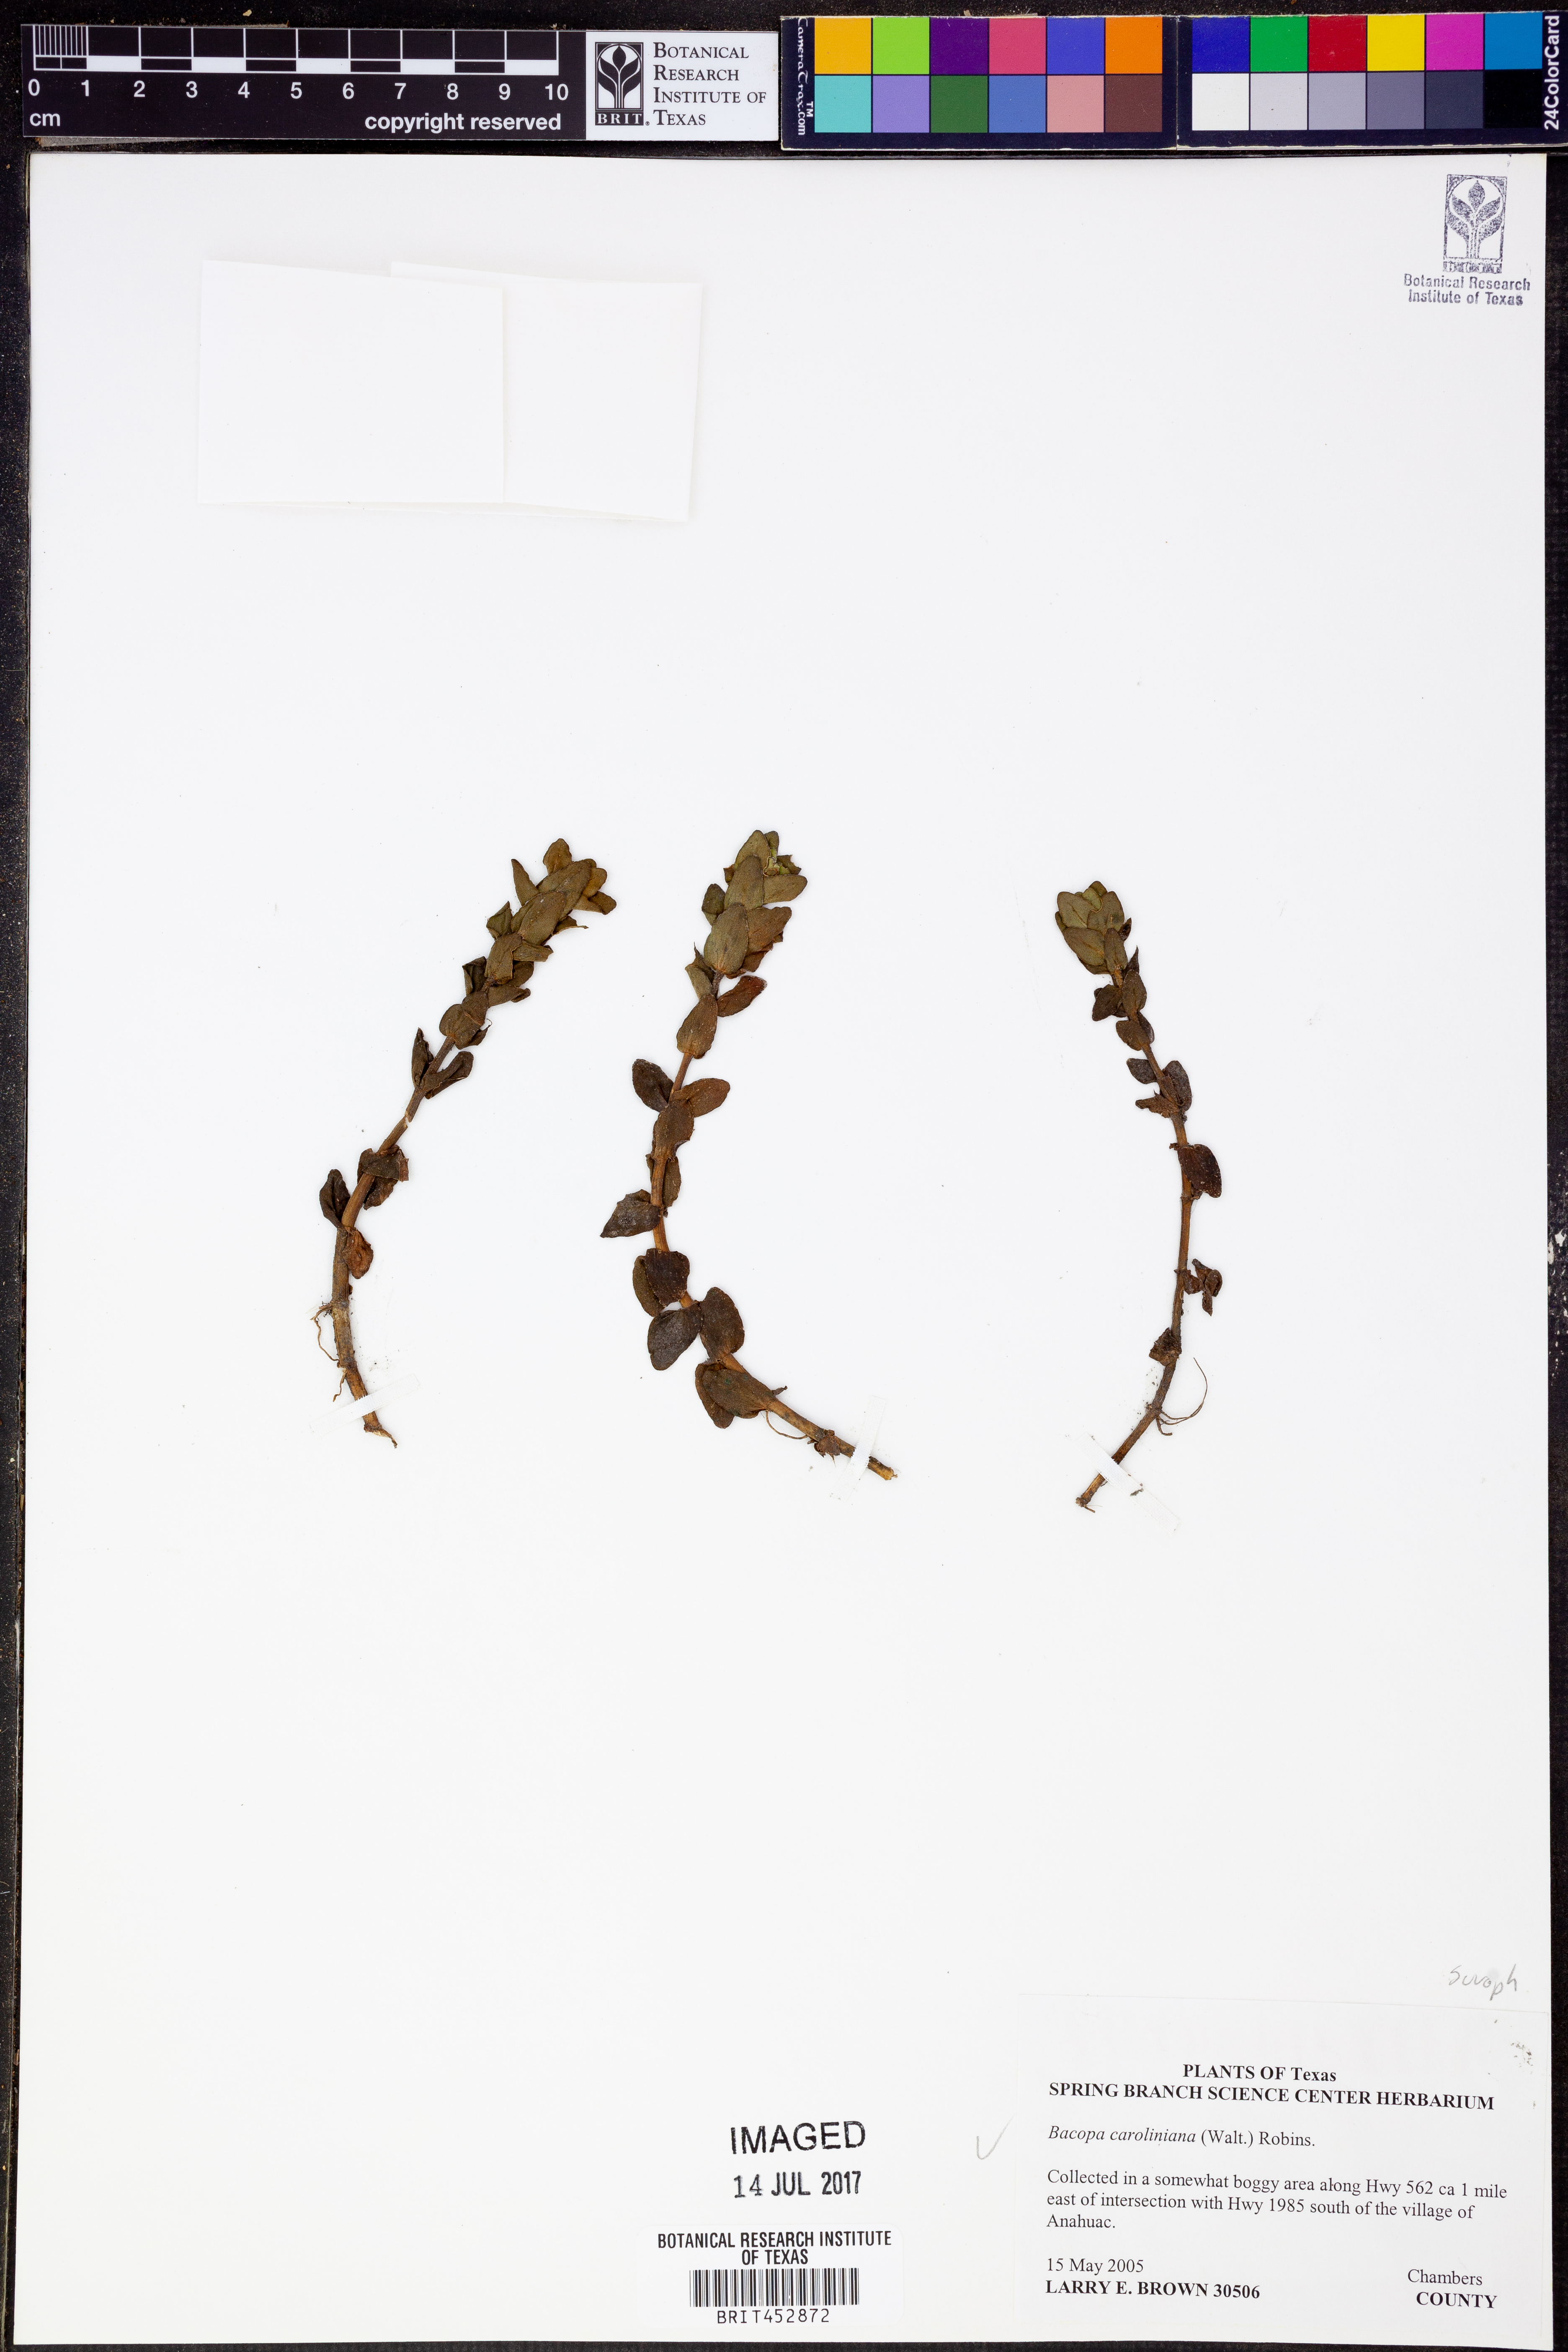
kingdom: Plantae
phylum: Tracheophyta
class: Magnoliopsida
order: Lamiales
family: Plantaginaceae
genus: Bacopa
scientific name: Bacopa caroliniana
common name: Lemon bacopa
